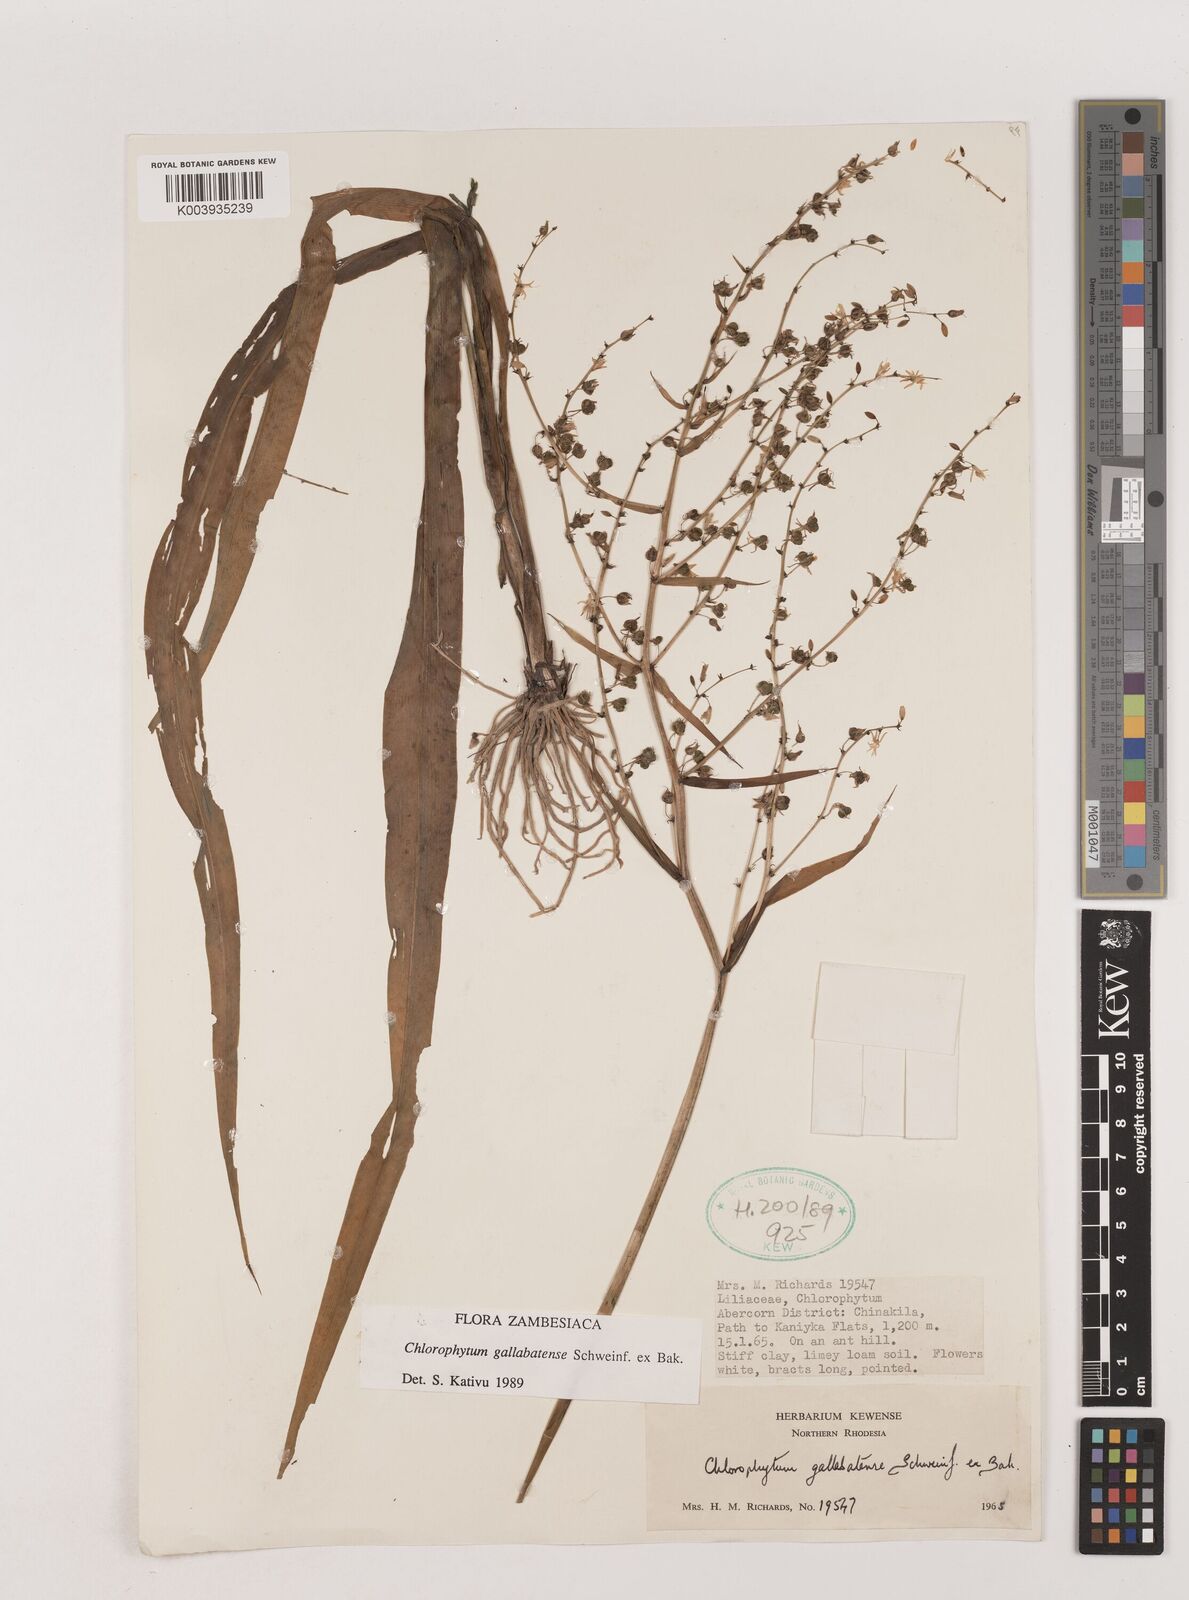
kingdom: Plantae
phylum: Tracheophyta
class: Liliopsida
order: Asparagales
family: Asparagaceae
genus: Chlorophytum
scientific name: Chlorophytum gallabatense
